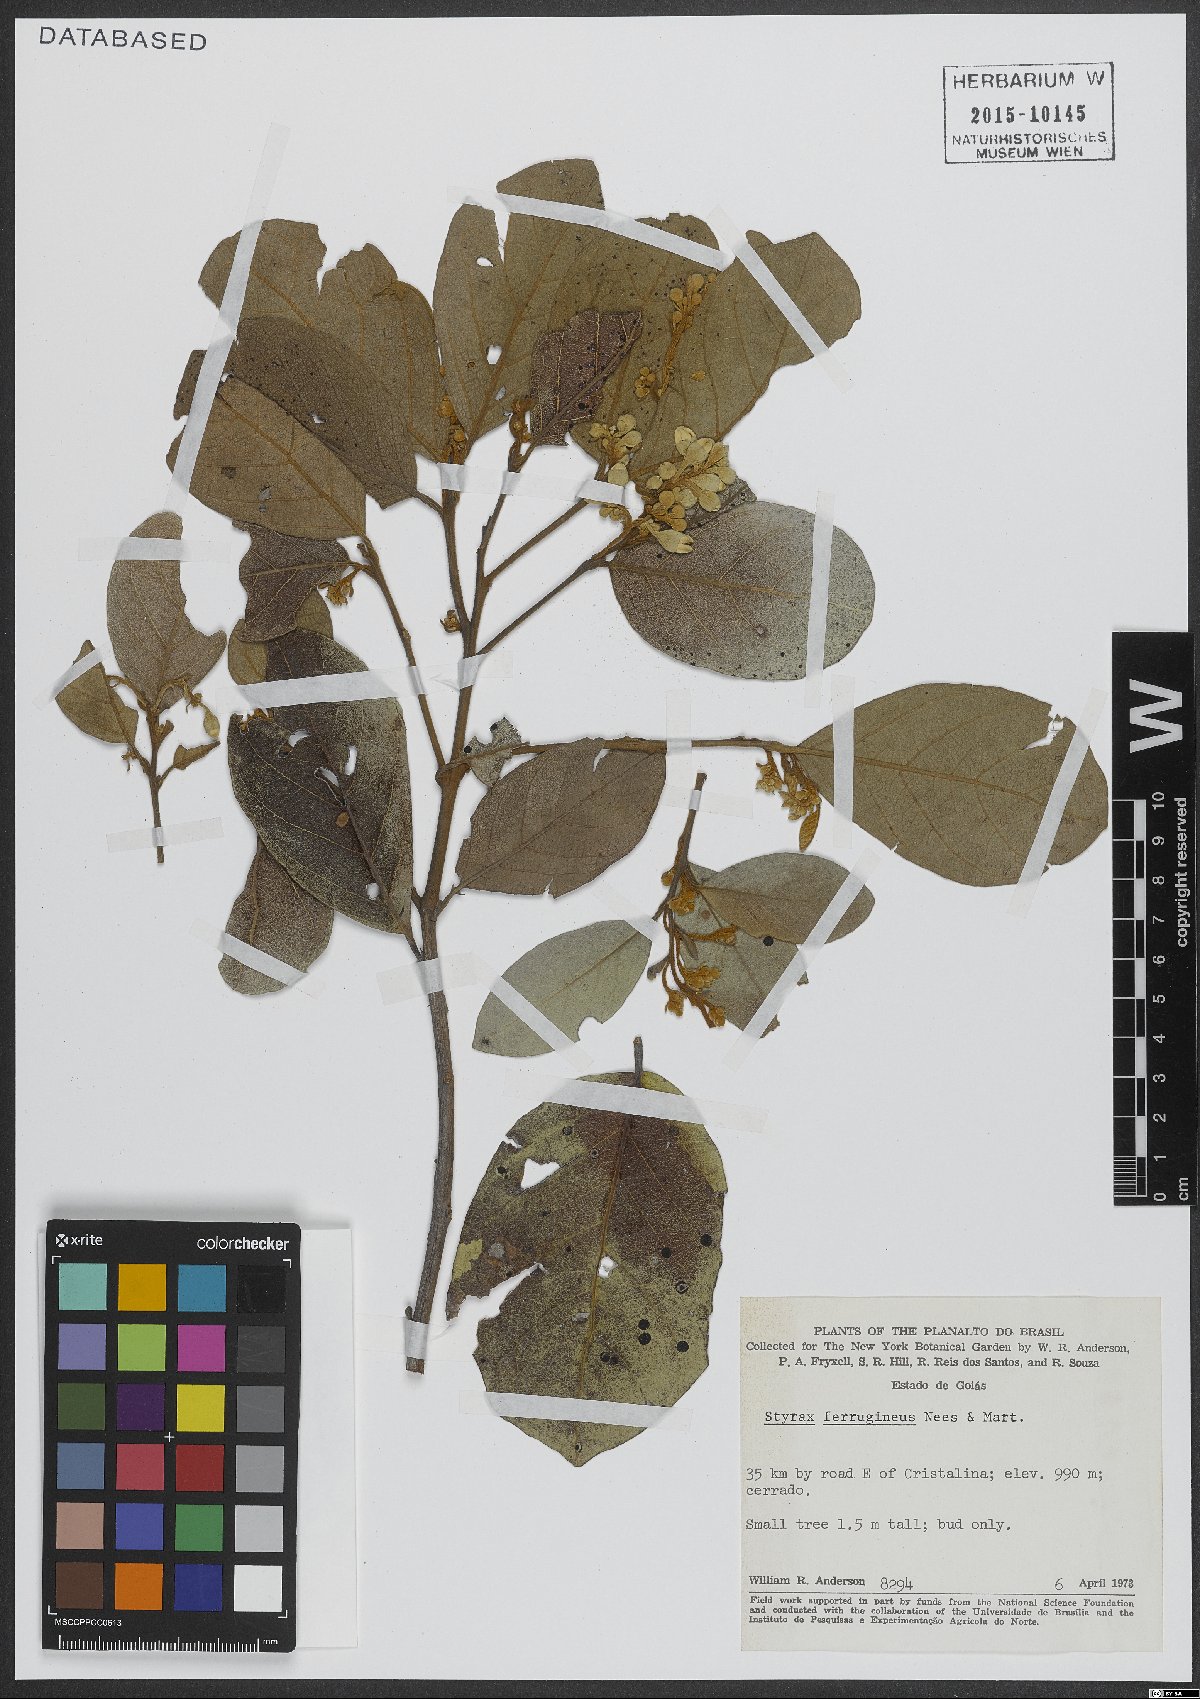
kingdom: Plantae
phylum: Tracheophyta
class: Magnoliopsida
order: Ericales
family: Styracaceae
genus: Styrax
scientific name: Styrax ferrugineus
